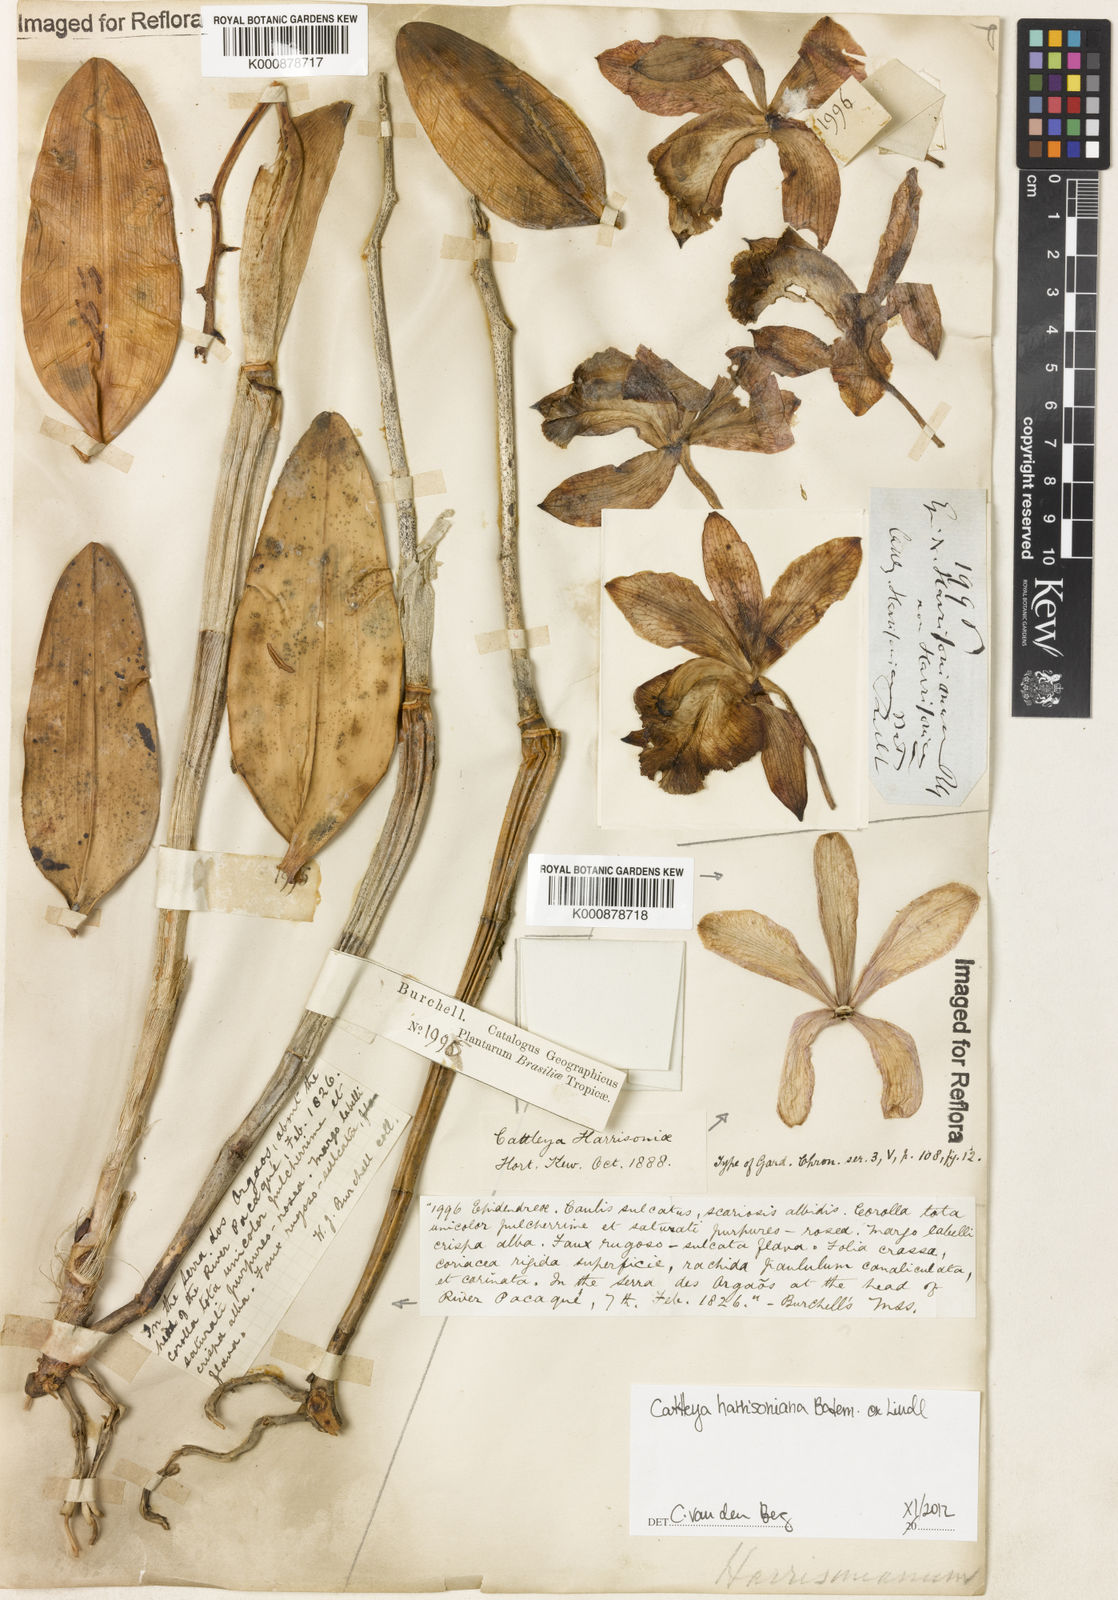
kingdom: Plantae
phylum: Tracheophyta
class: Liliopsida
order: Asparagales
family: Orchidaceae
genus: Cattleya
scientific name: Cattleya harrisoniana
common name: Harrison's cattleya
